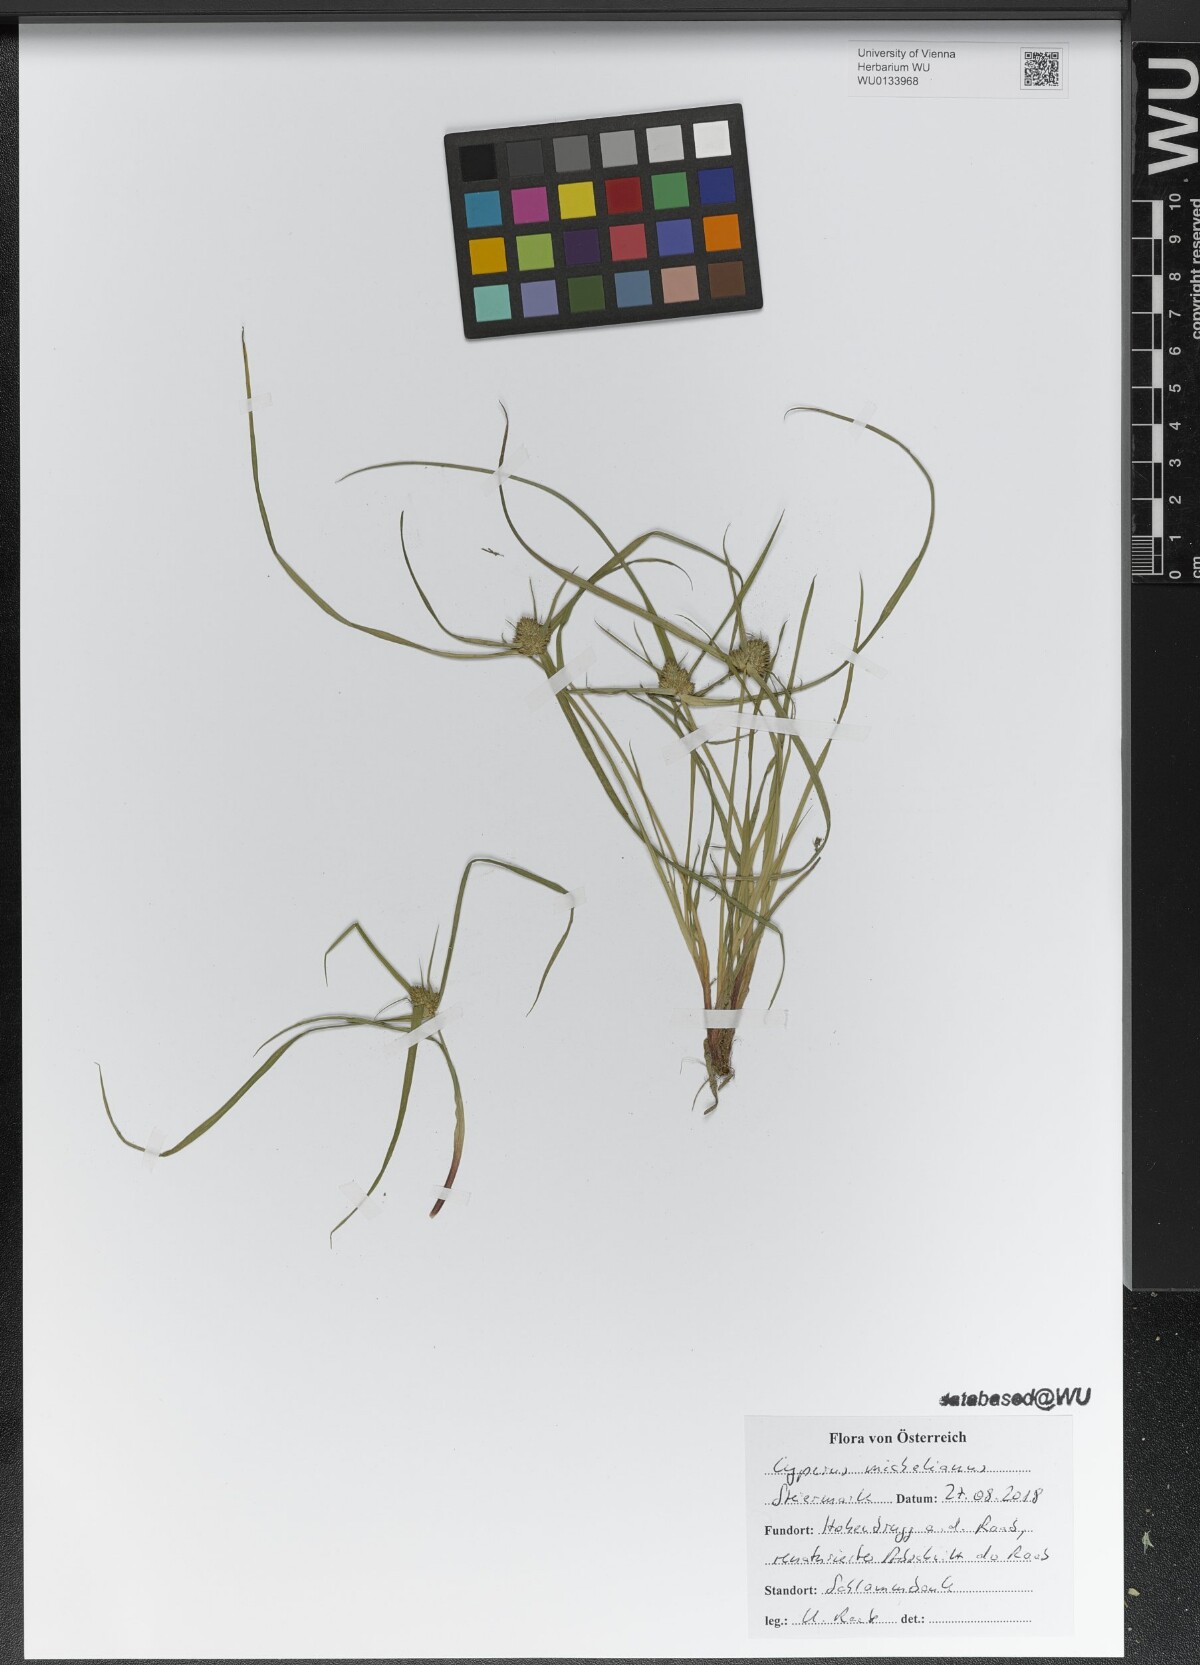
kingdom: Plantae
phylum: Tracheophyta
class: Liliopsida
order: Poales
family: Cyperaceae
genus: Cyperus
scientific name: Cyperus michelianus
